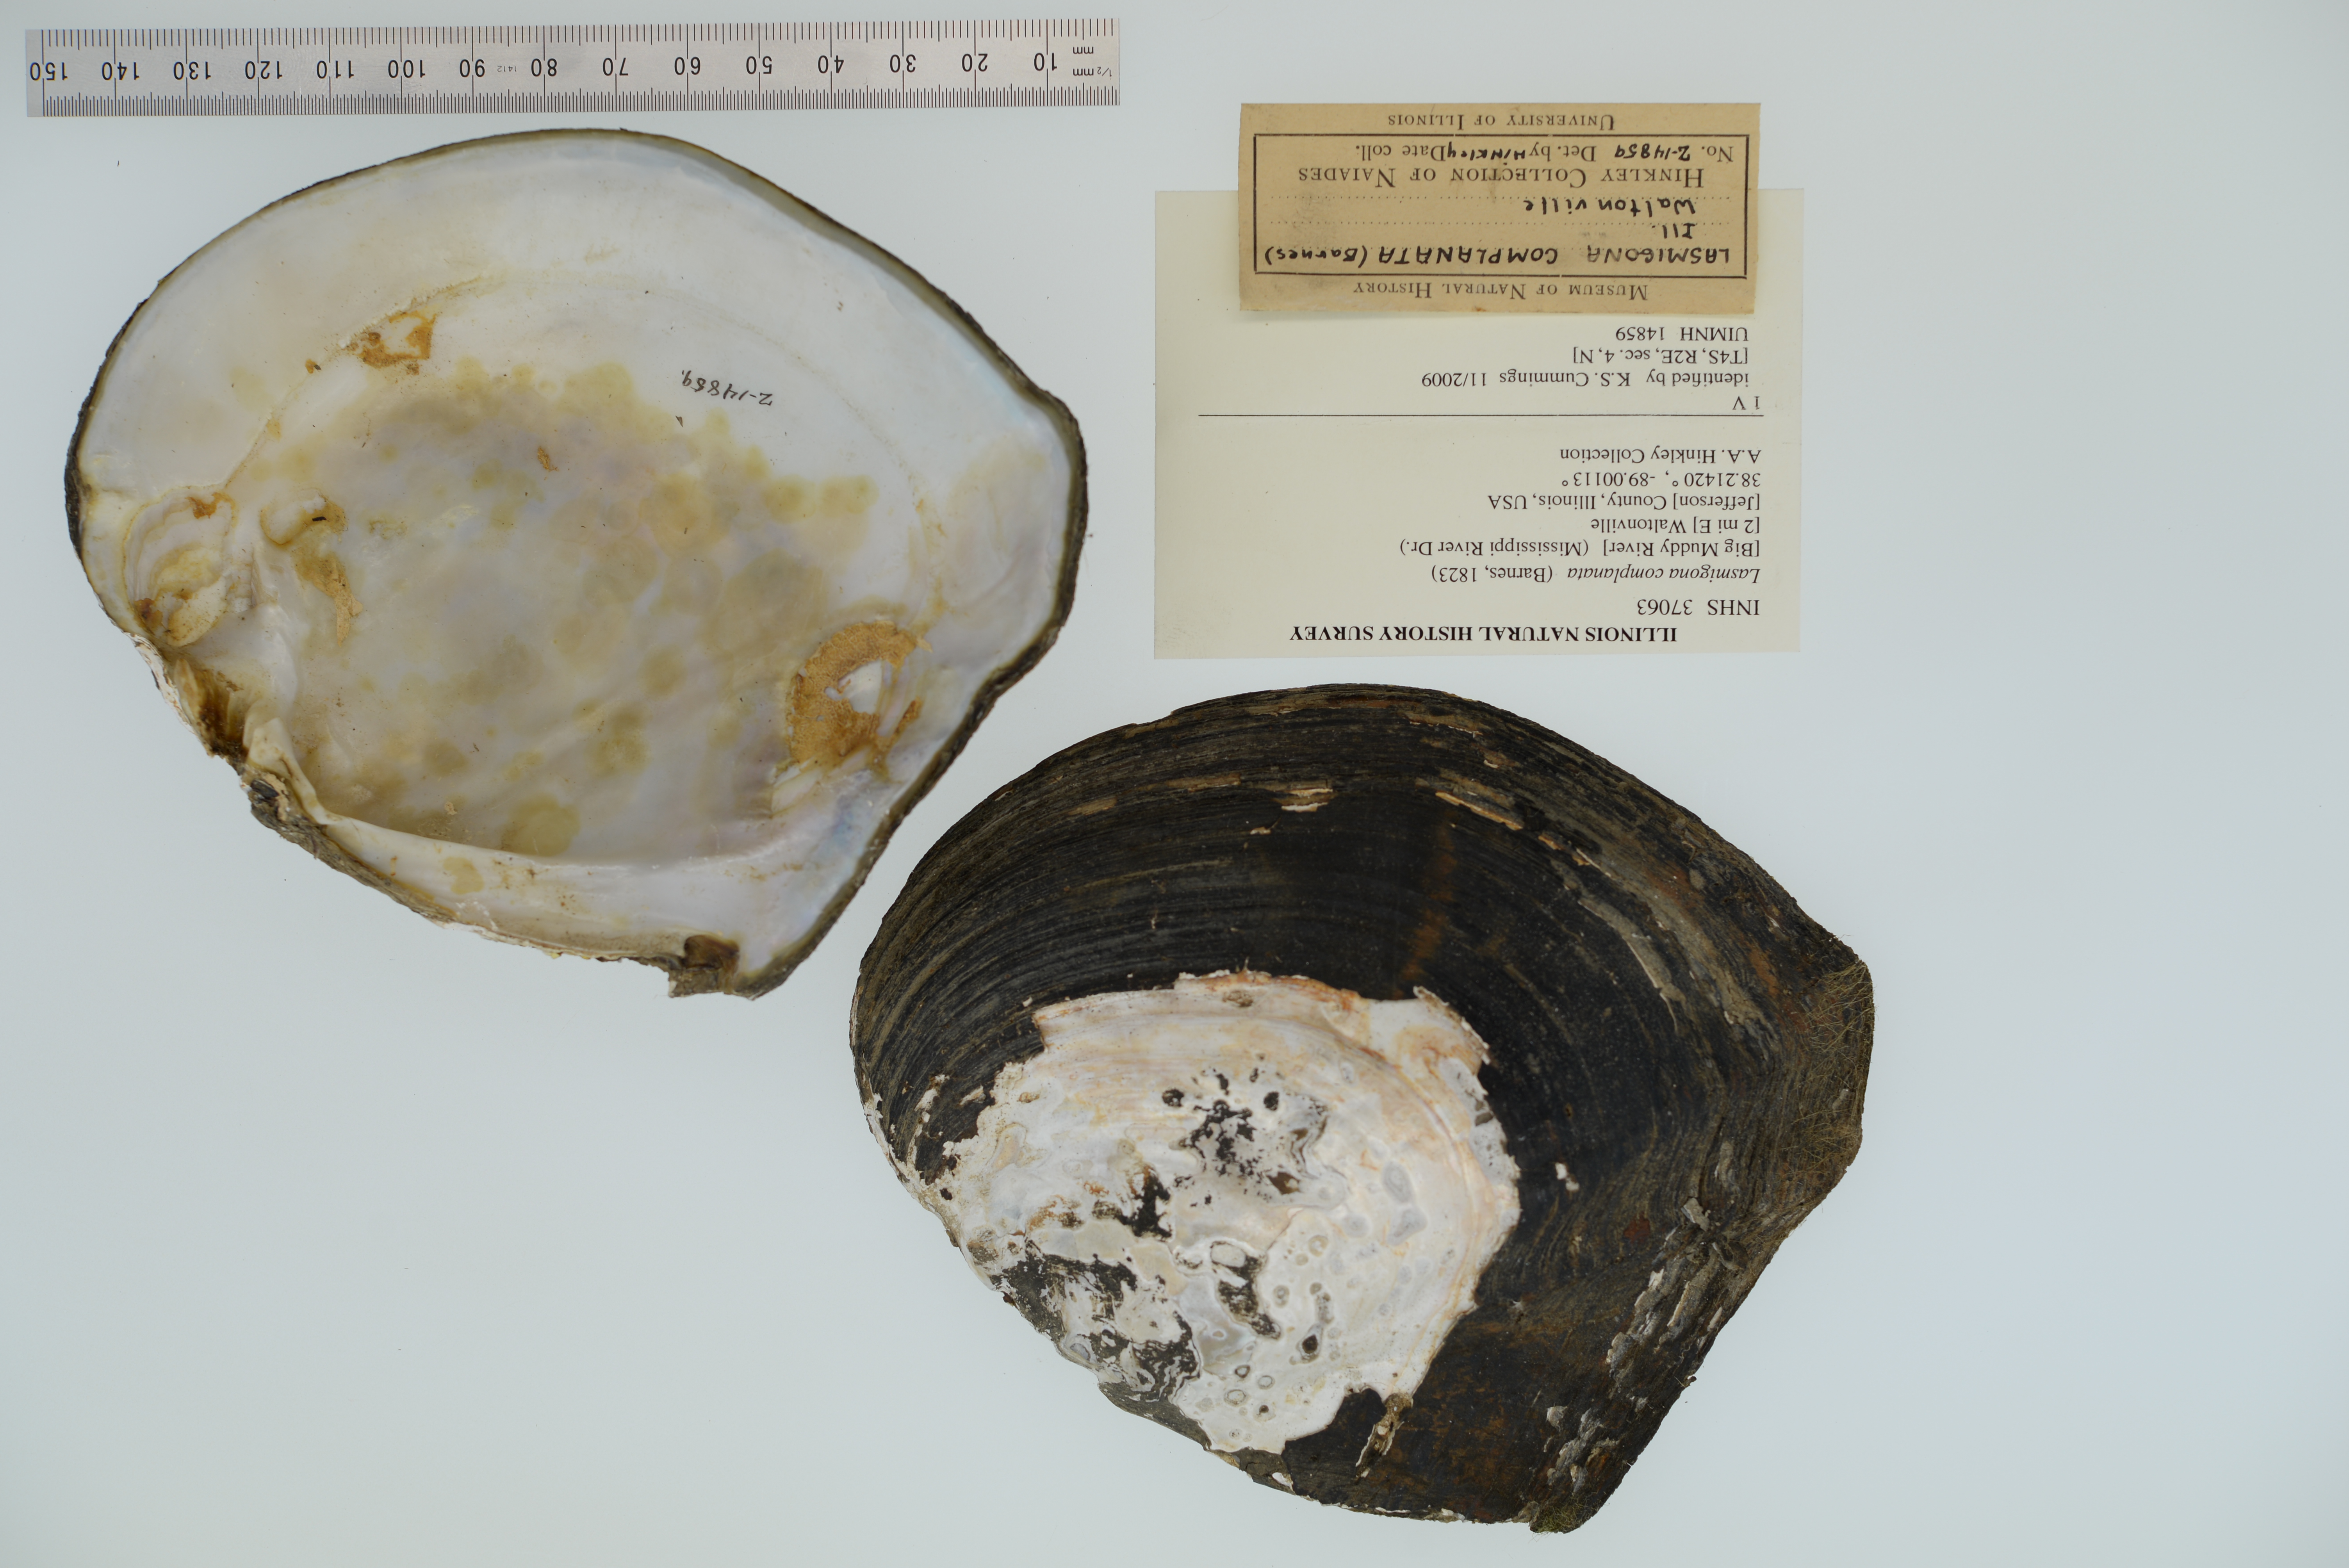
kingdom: Animalia
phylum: Mollusca
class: Bivalvia
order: Unionida
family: Unionidae
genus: Lasmigona
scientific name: Lasmigona complanata
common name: White heelsplitter
